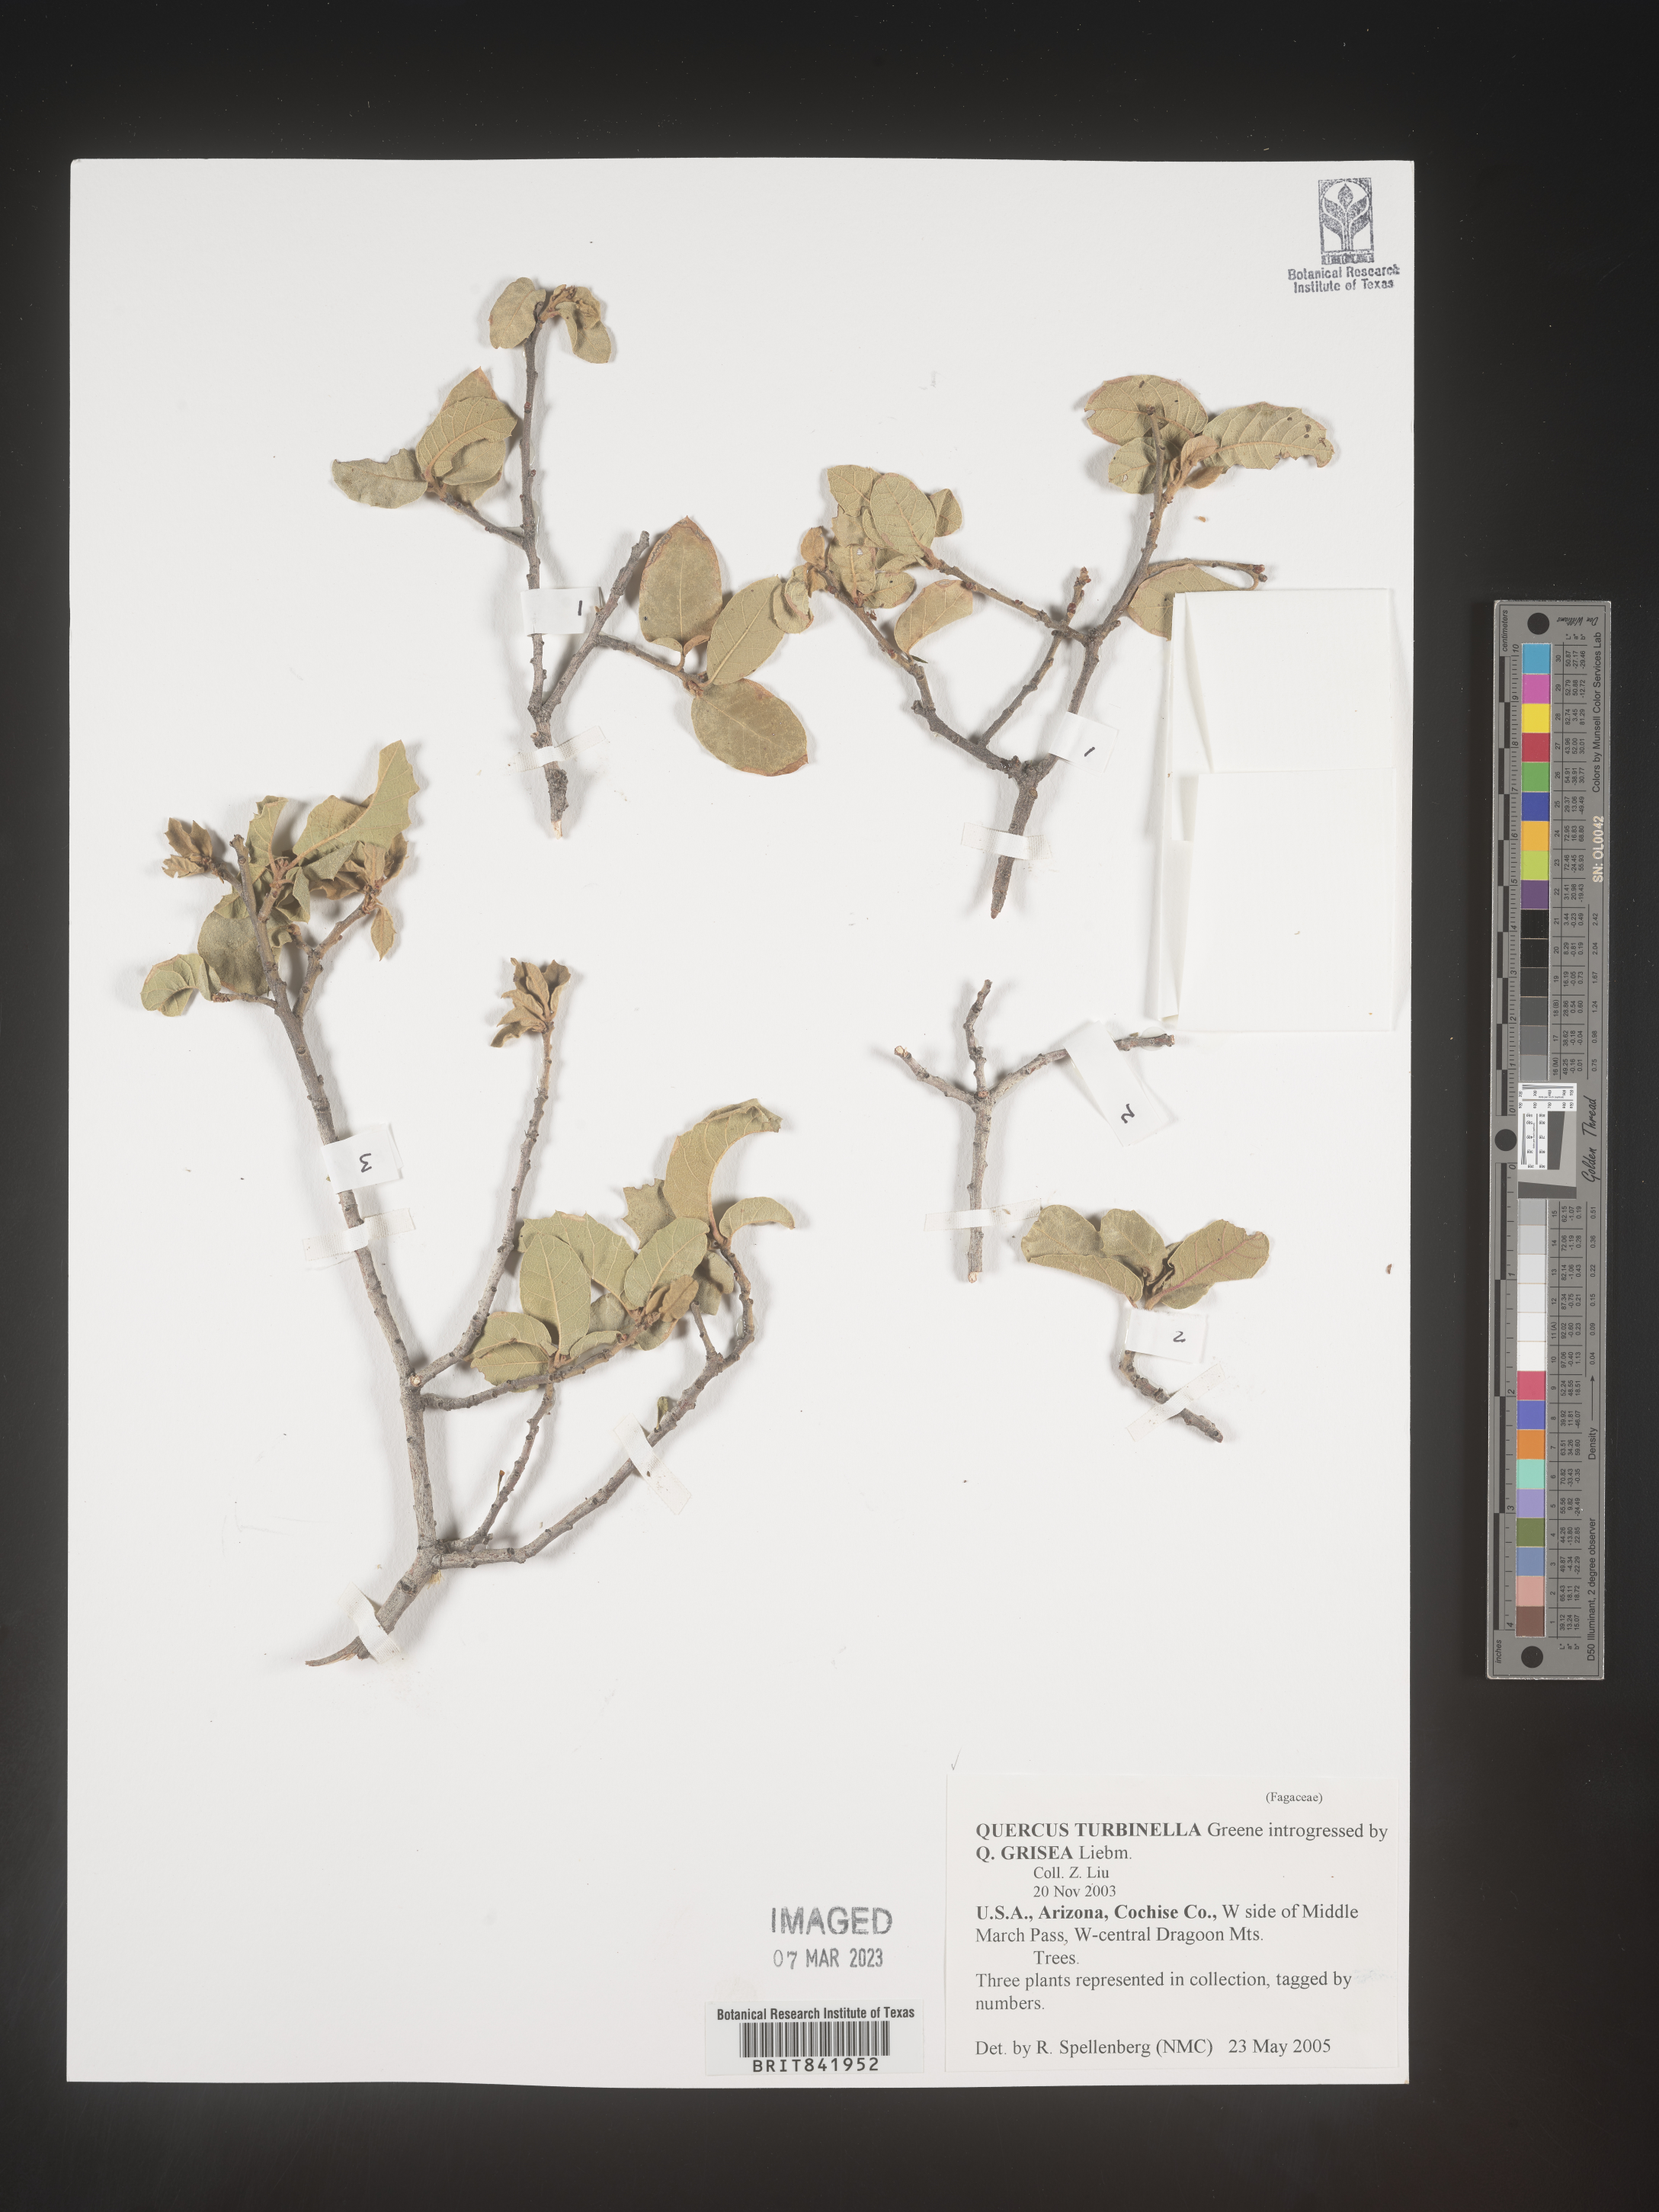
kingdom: Plantae
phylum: Tracheophyta
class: Magnoliopsida
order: Fagales
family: Fagaceae
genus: Quercus
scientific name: Quercus turbinella
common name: Sonoran scrub oak
